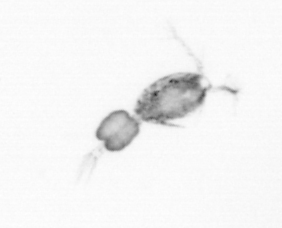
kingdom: Animalia
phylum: Arthropoda
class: Copepoda
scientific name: Copepoda
